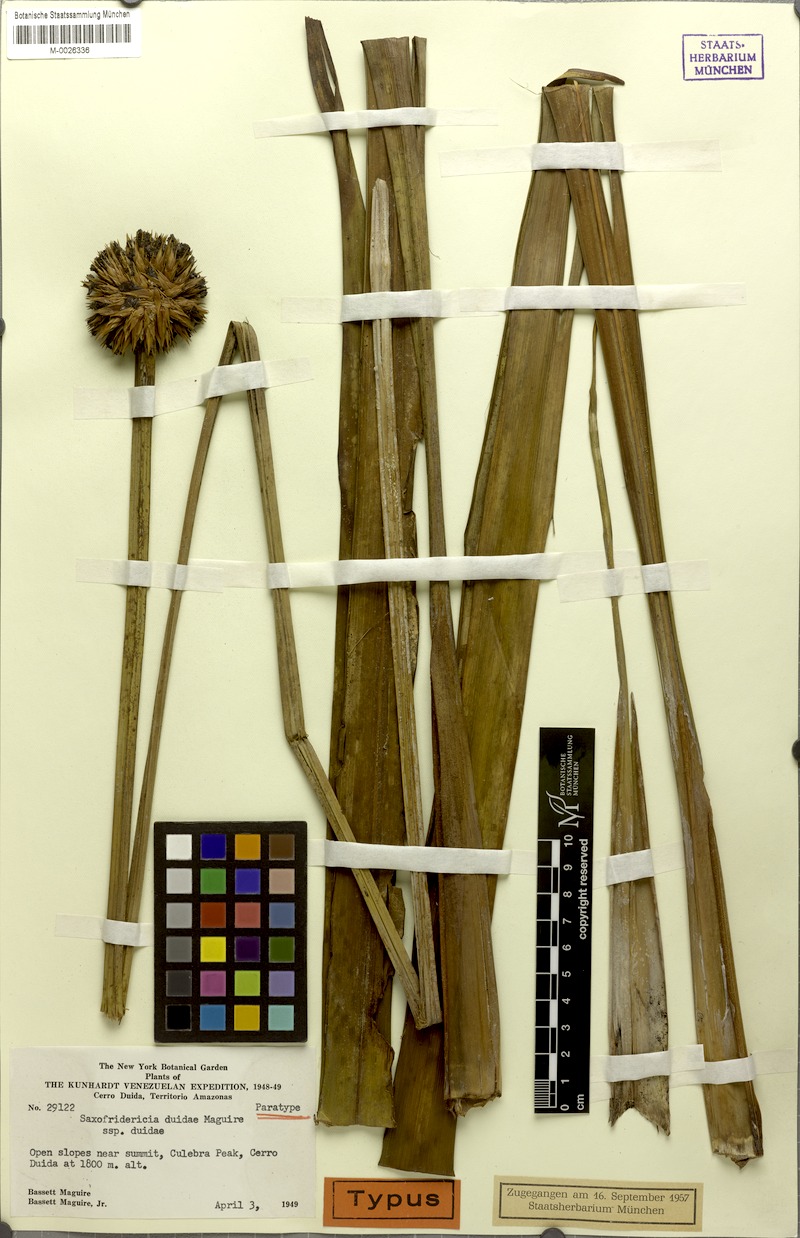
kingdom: Plantae
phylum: Tracheophyta
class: Liliopsida
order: Poales
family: Rapateaceae
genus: Saxofridericia
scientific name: Saxofridericia duidae
